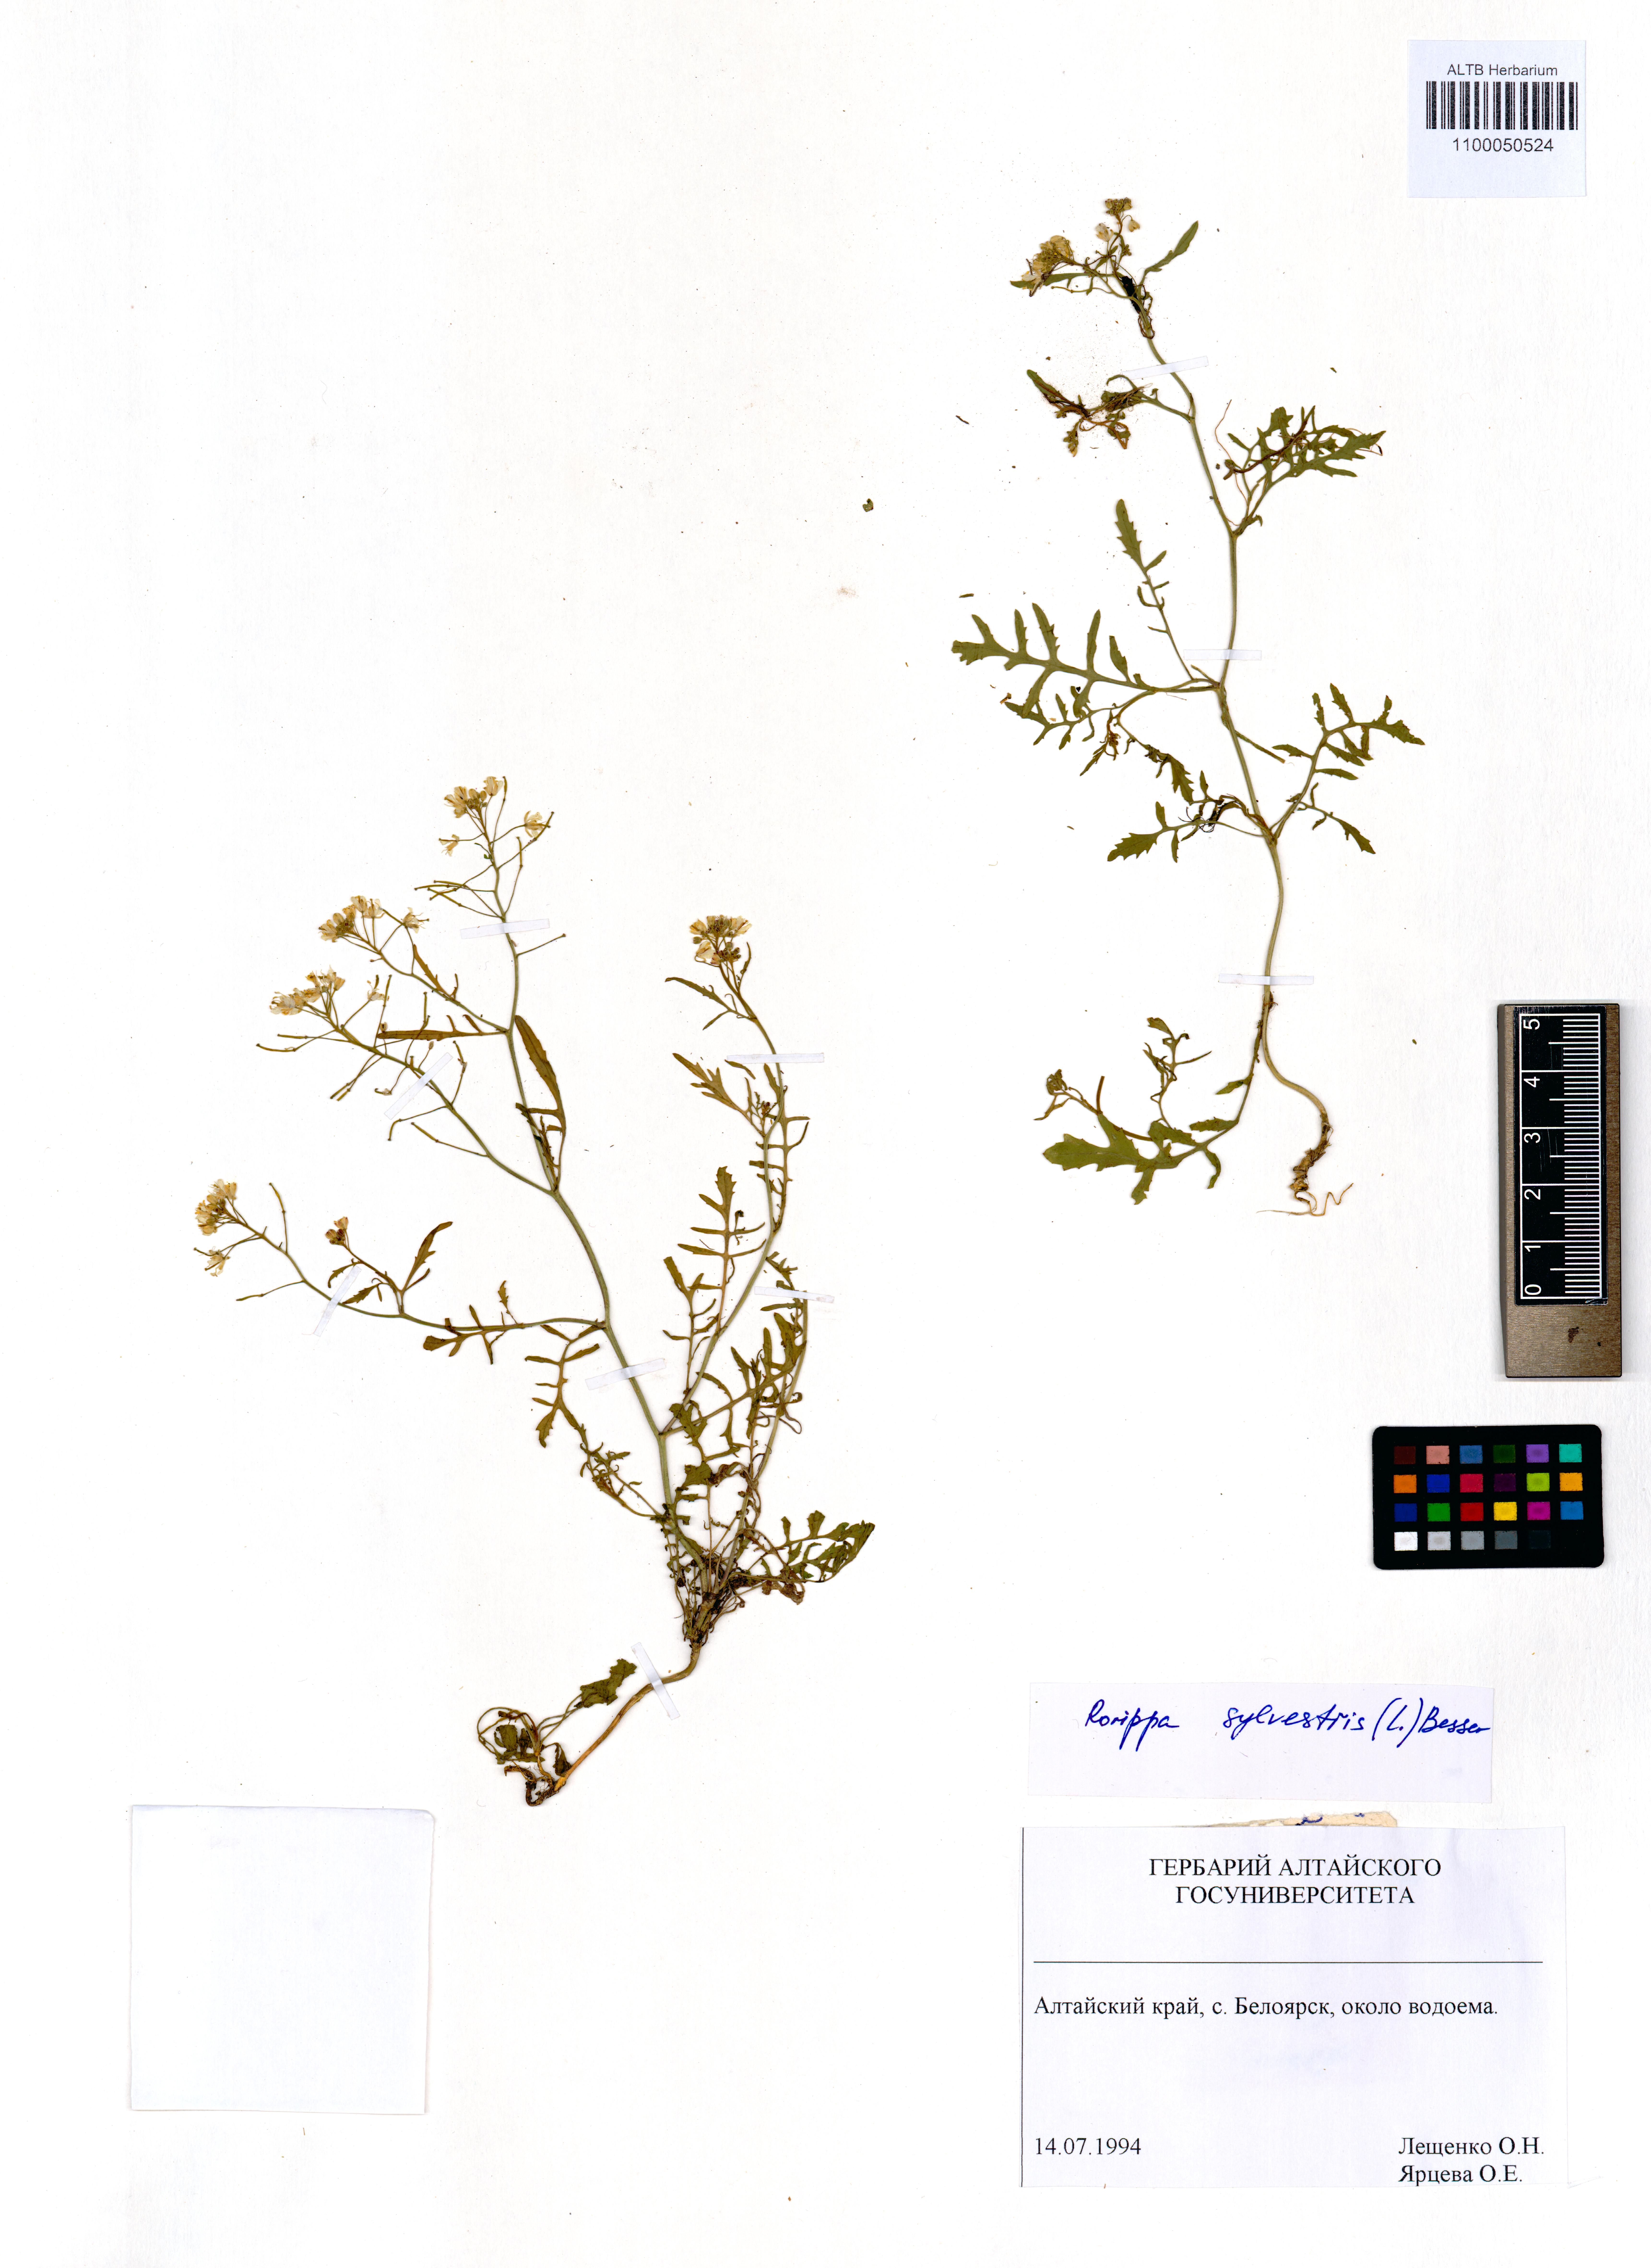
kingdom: Plantae
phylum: Tracheophyta
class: Magnoliopsida
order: Brassicales
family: Brassicaceae
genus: Rorippa
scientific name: Rorippa sylvestris
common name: Creeping yellowcress
